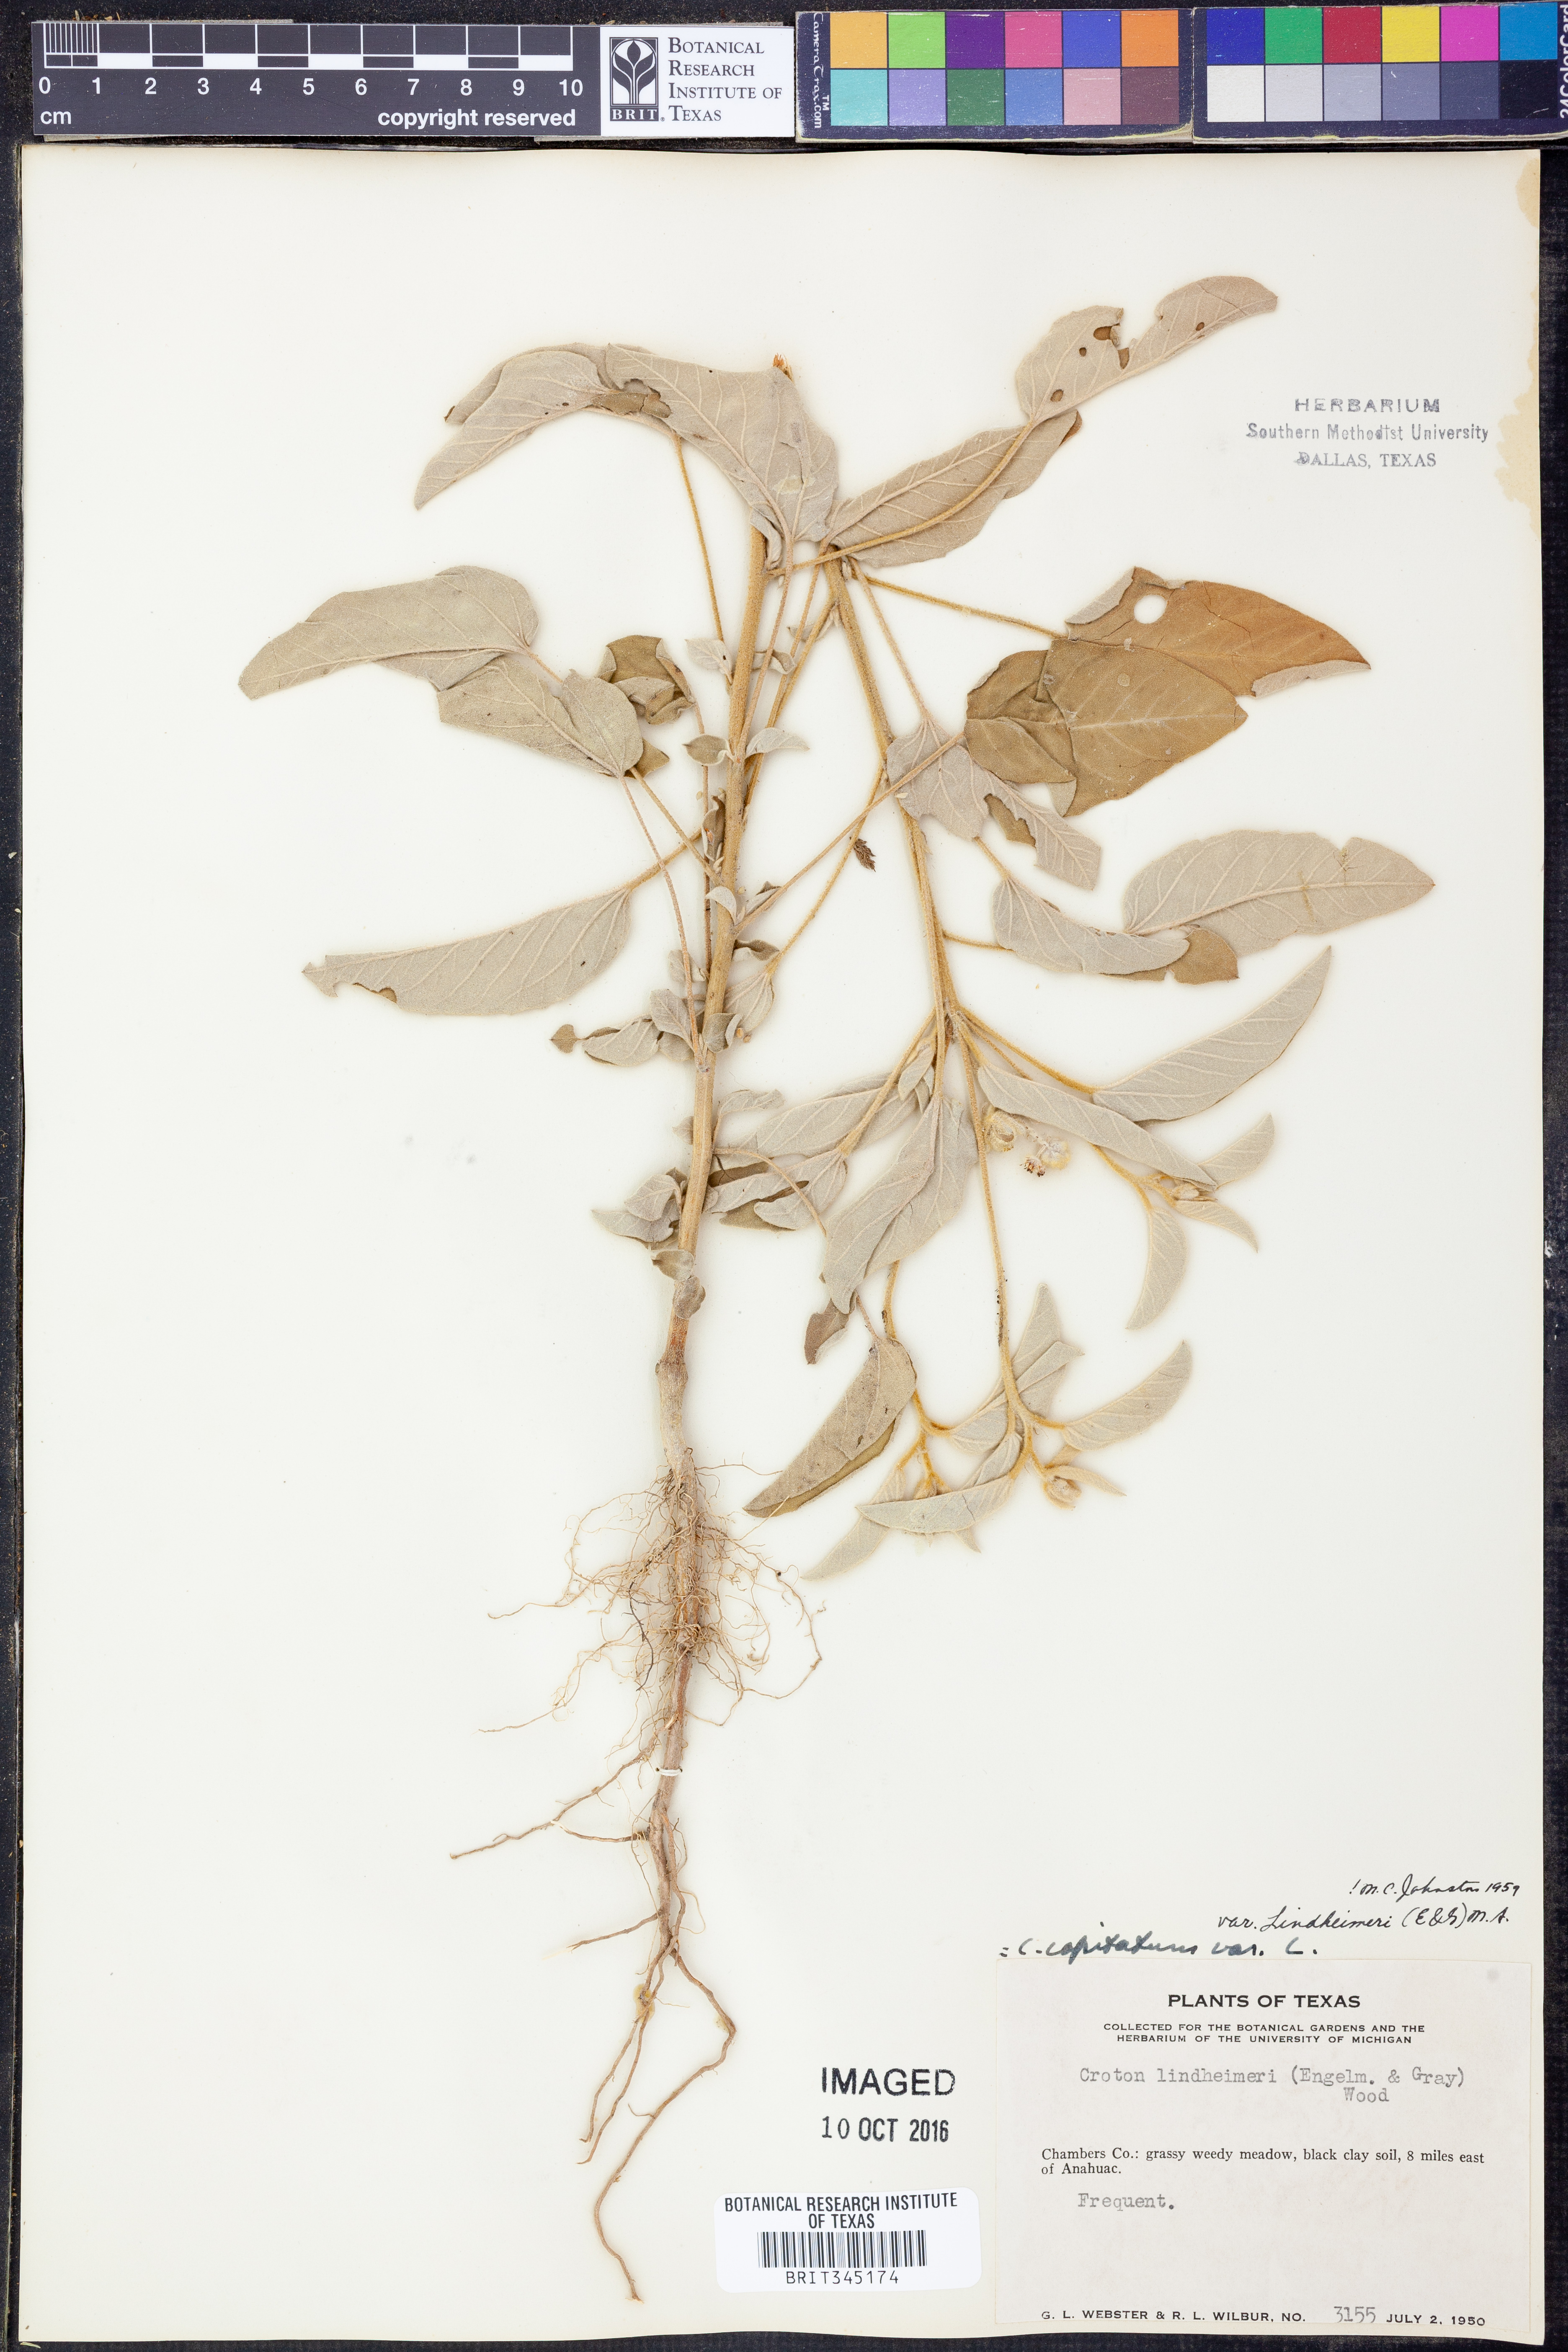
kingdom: Plantae
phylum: Tracheophyta
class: Magnoliopsida
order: Malpighiales
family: Euphorbiaceae
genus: Croton
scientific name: Croton lindheimeri
